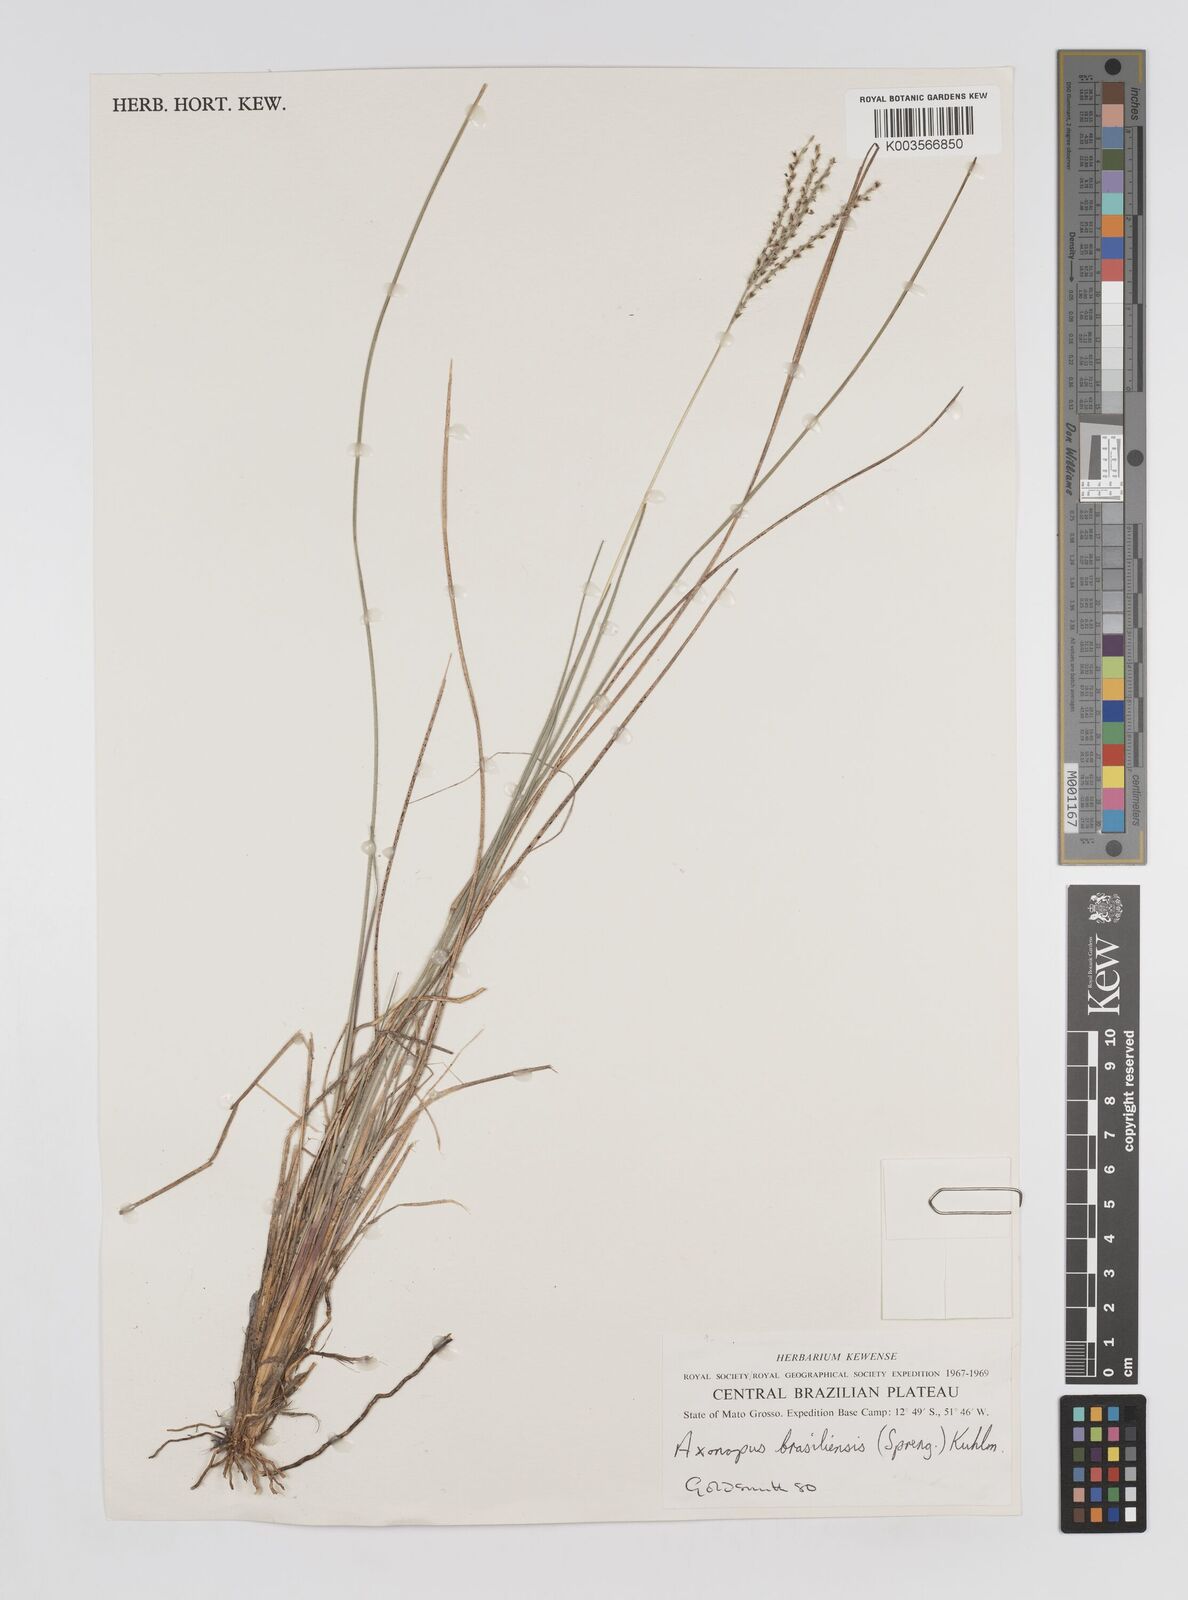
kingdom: Plantae
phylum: Tracheophyta
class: Liliopsida
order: Poales
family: Poaceae
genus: Axonopus
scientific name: Axonopus brasiliensis
